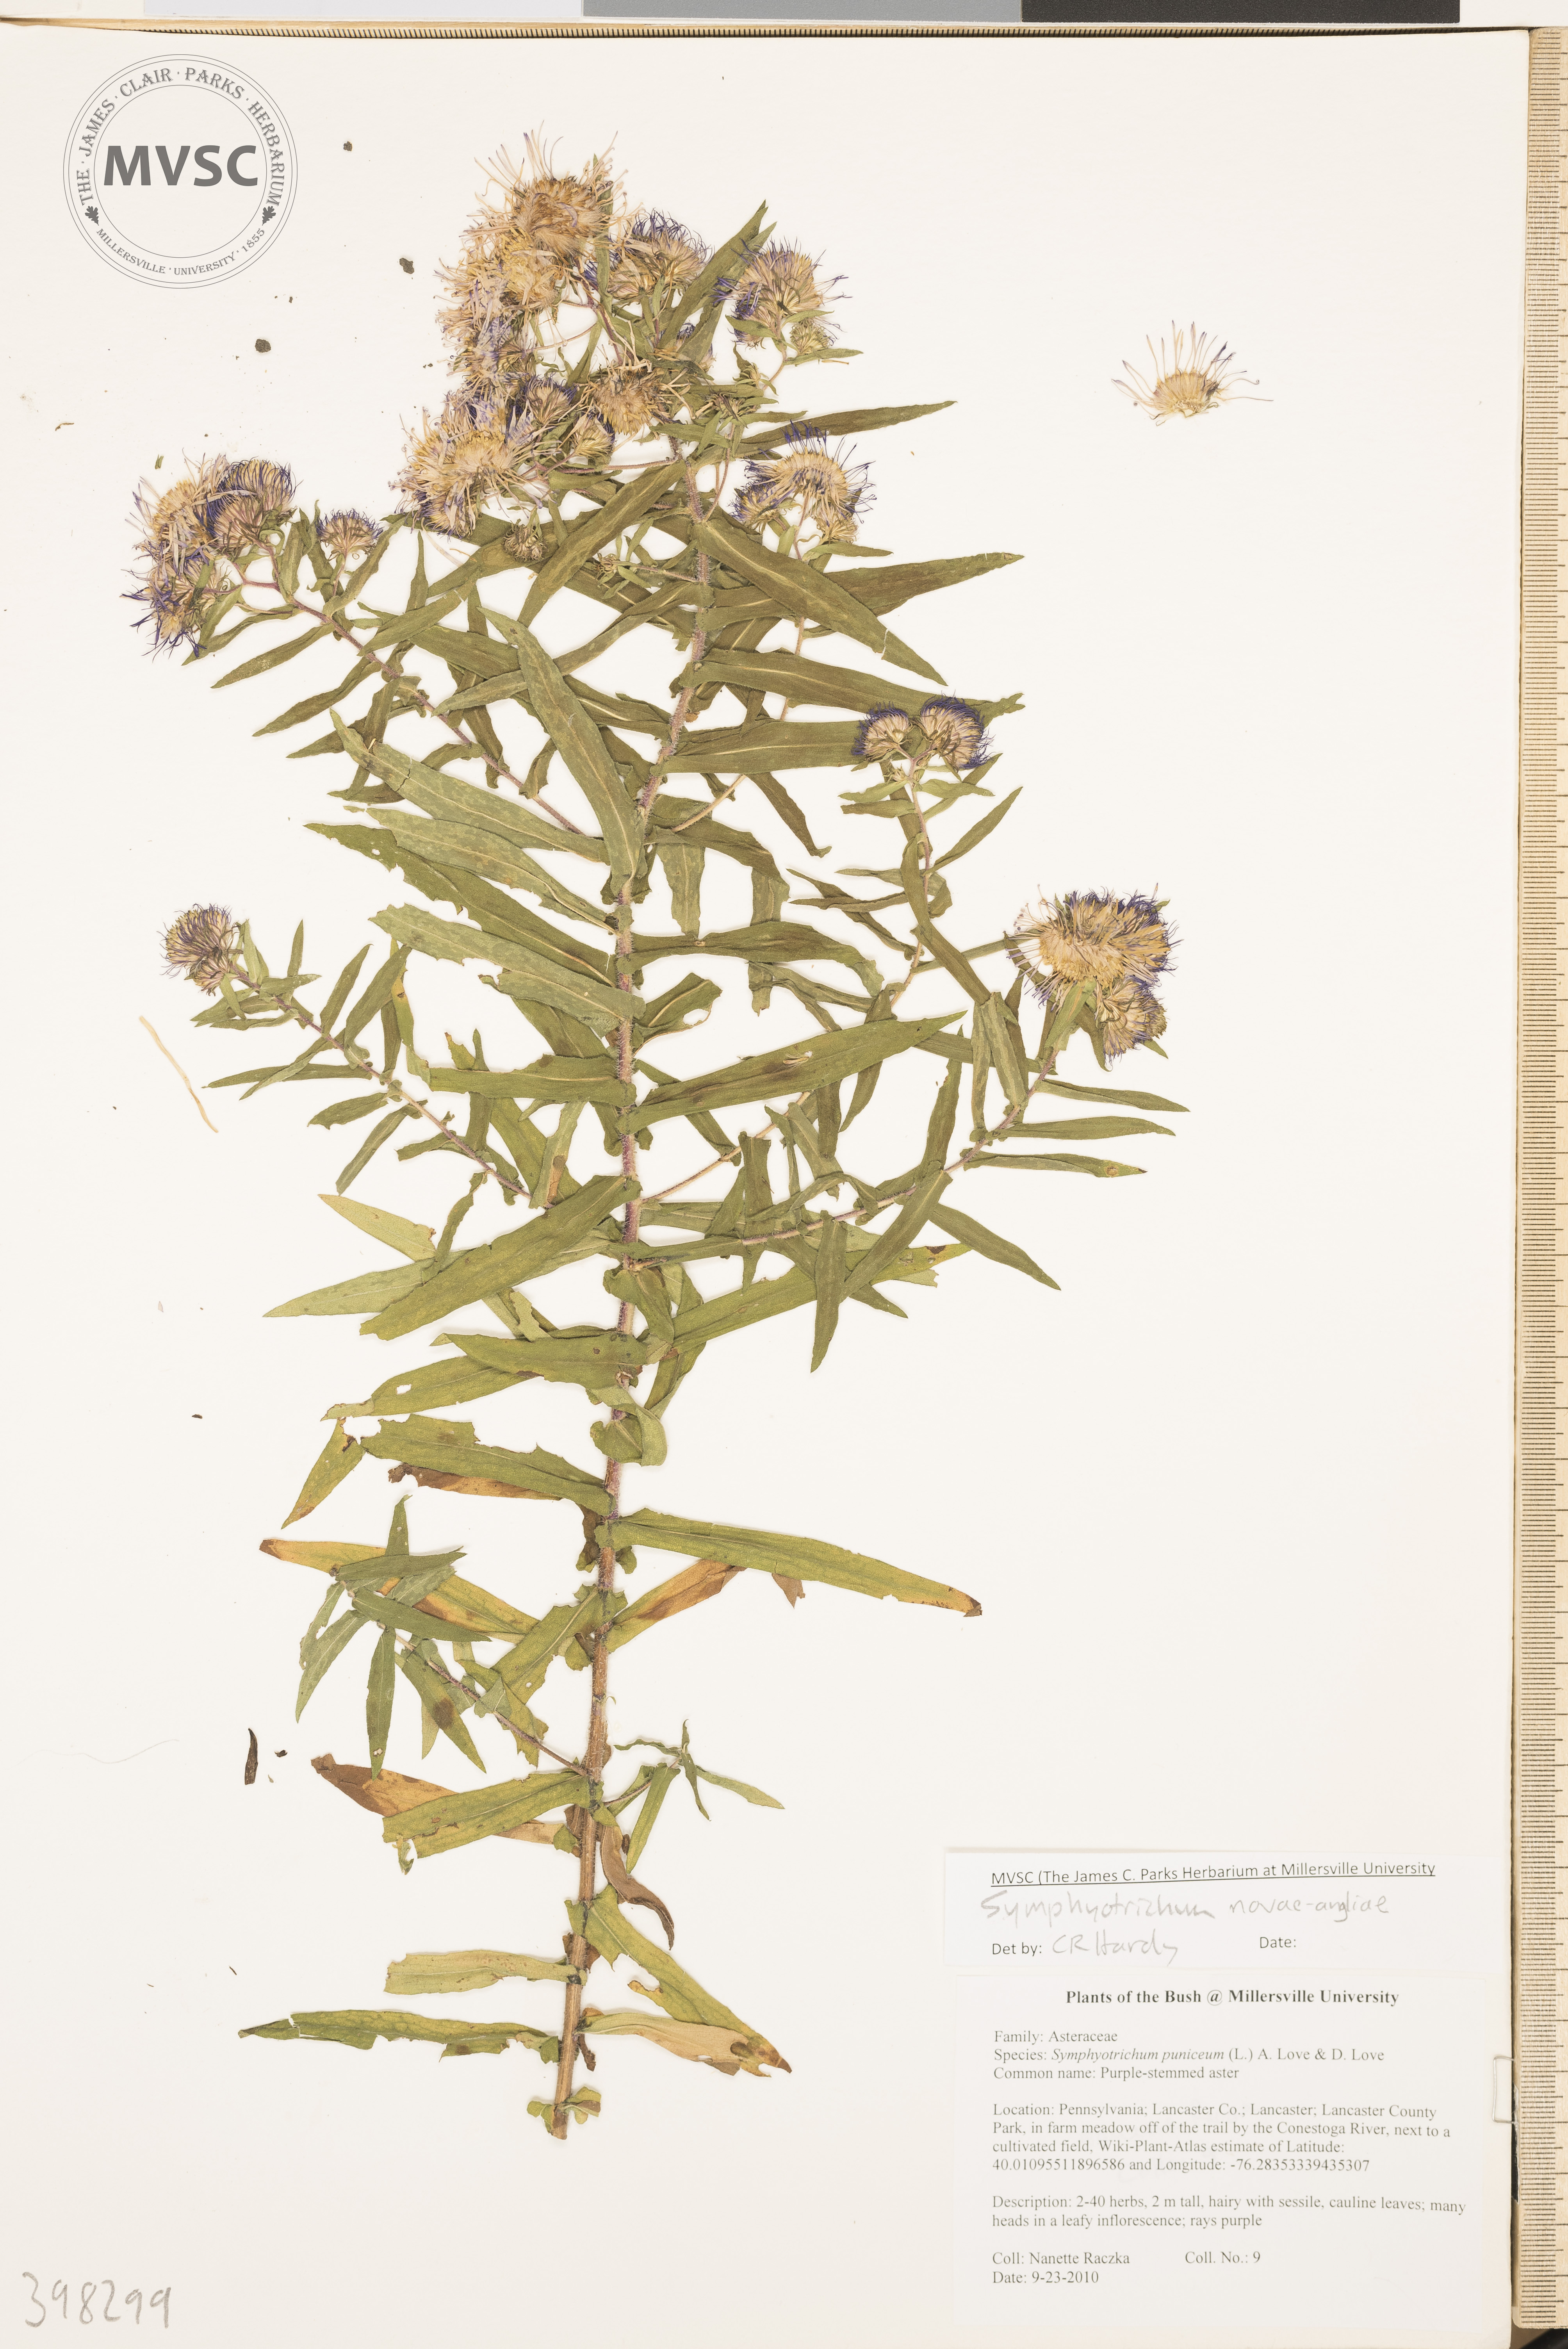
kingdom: Plantae
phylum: Tracheophyta
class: Magnoliopsida
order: Asterales
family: Asteraceae
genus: Symphyotrichum
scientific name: Symphyotrichum novae-angliae
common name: New England Aster
